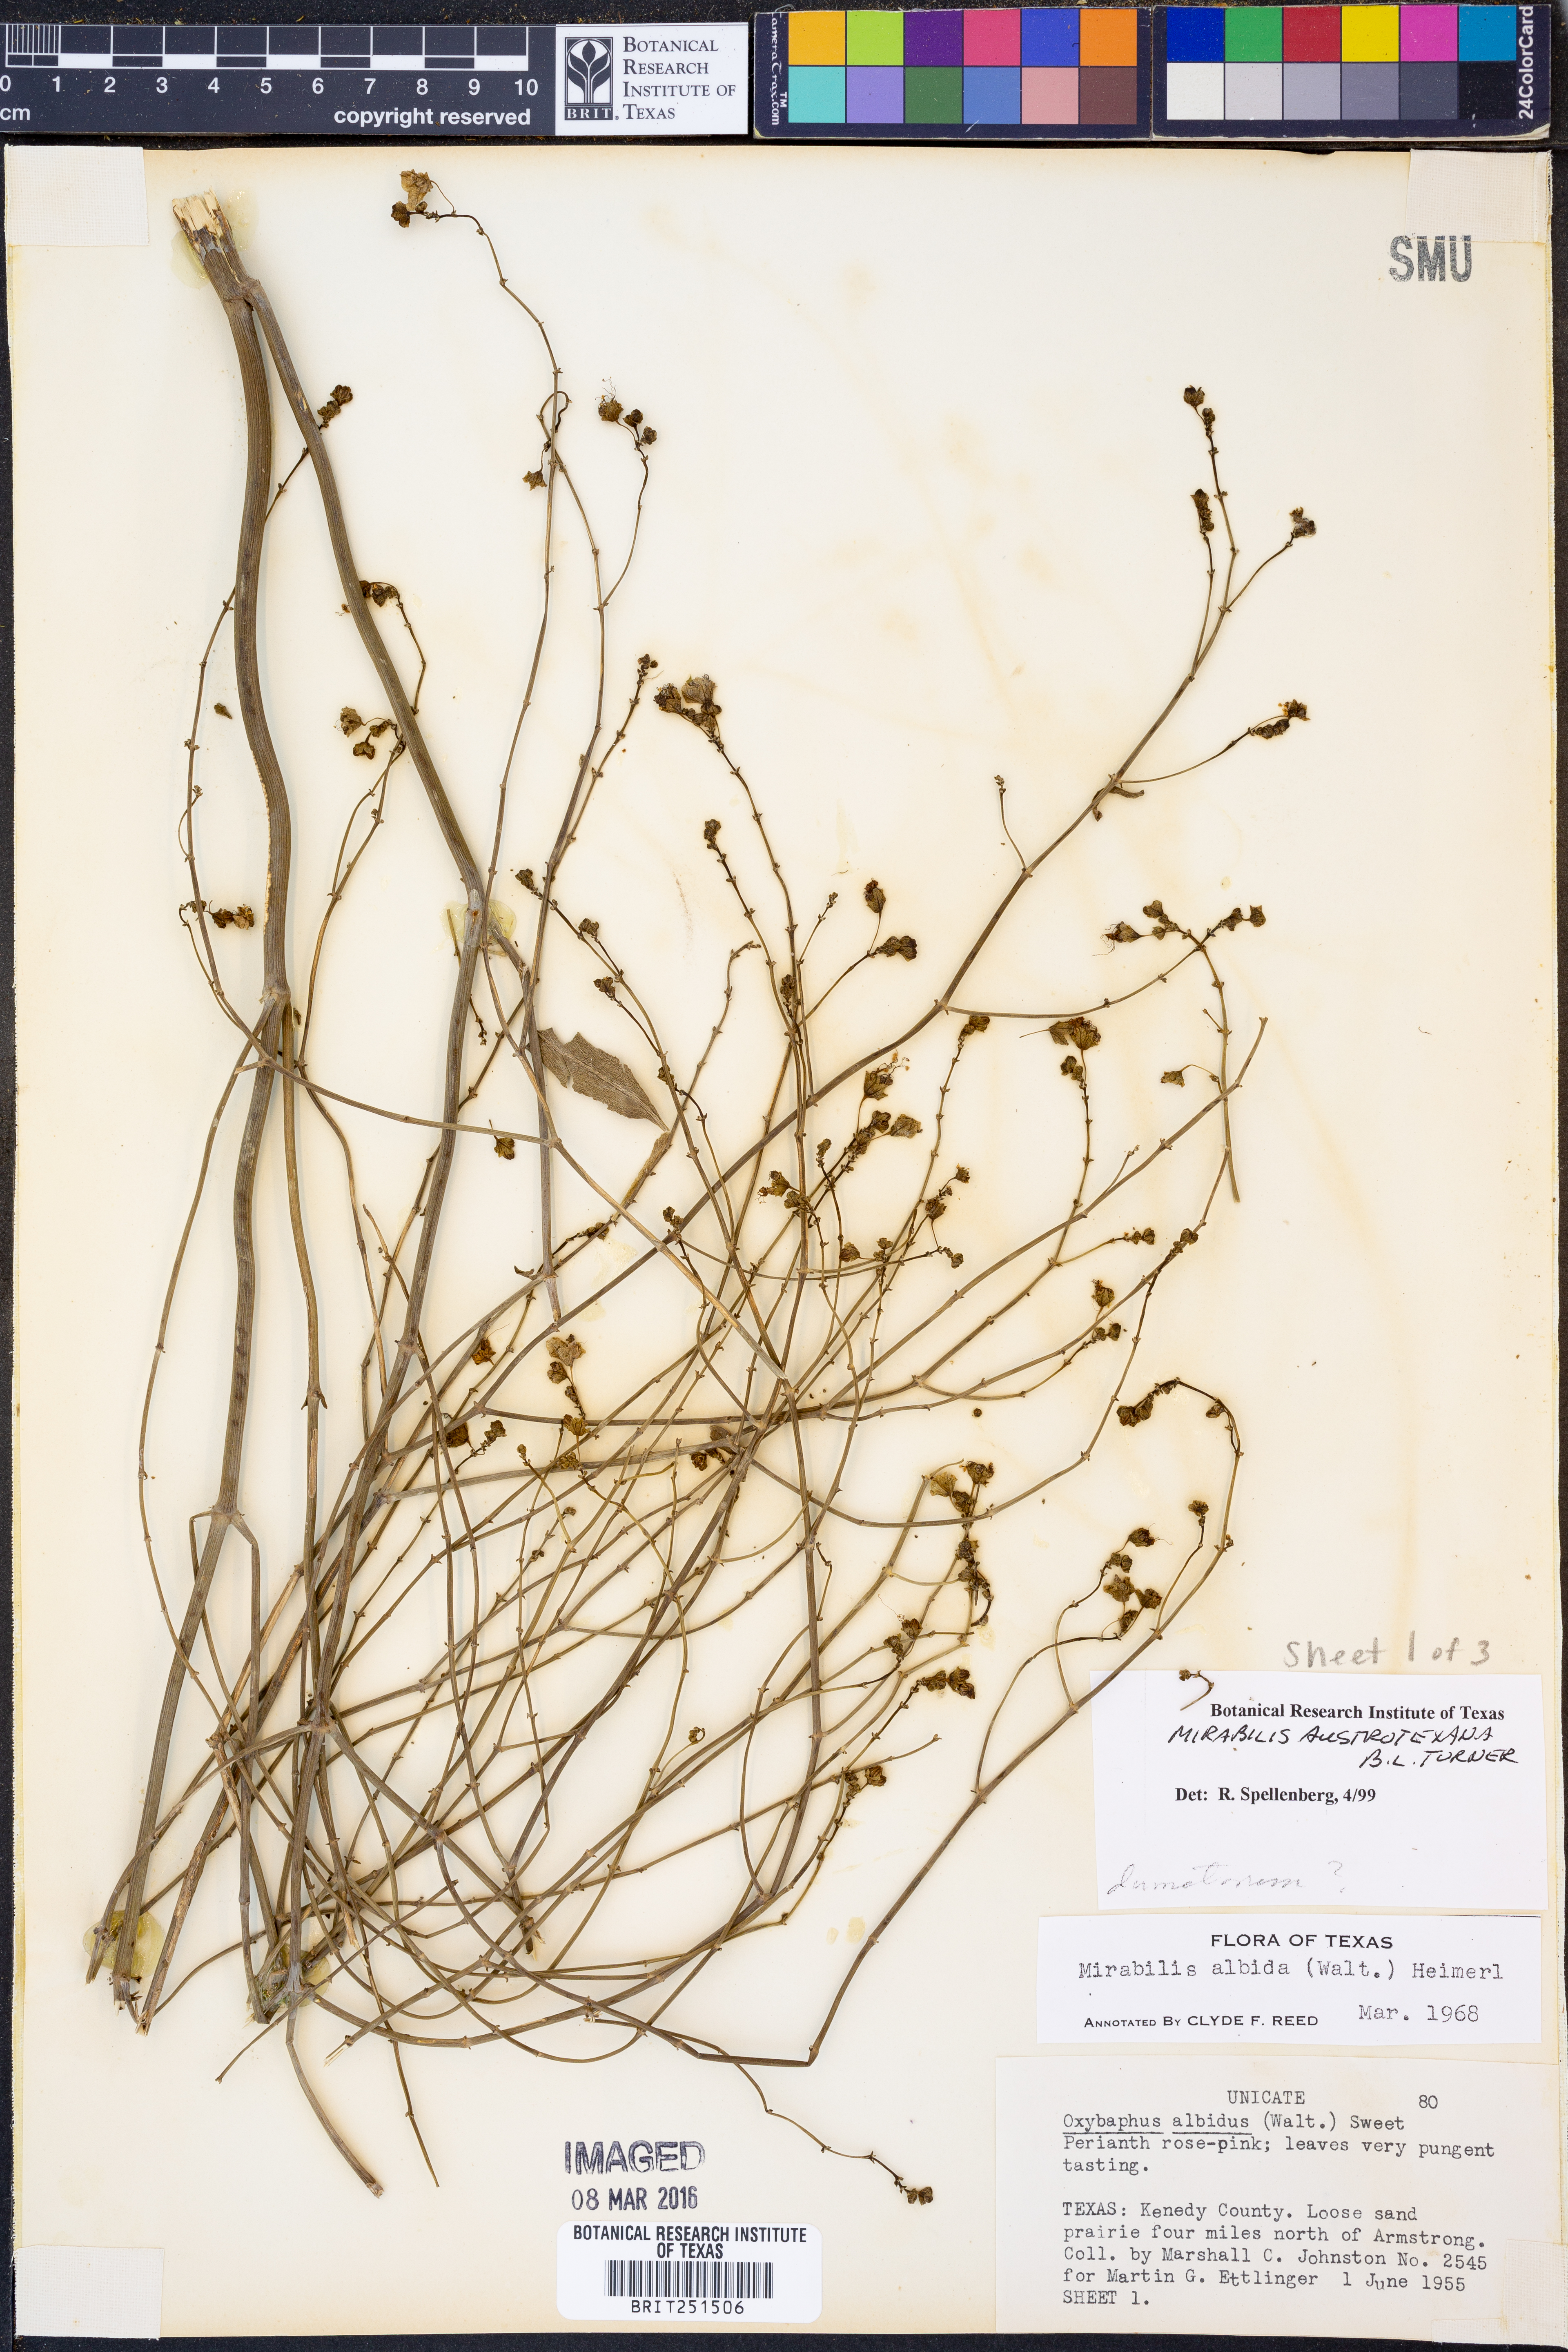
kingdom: Plantae
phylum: Tracheophyta
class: Magnoliopsida
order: Caryophyllales
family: Nyctaginaceae
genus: Mirabilis
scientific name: Mirabilis austrotexana
